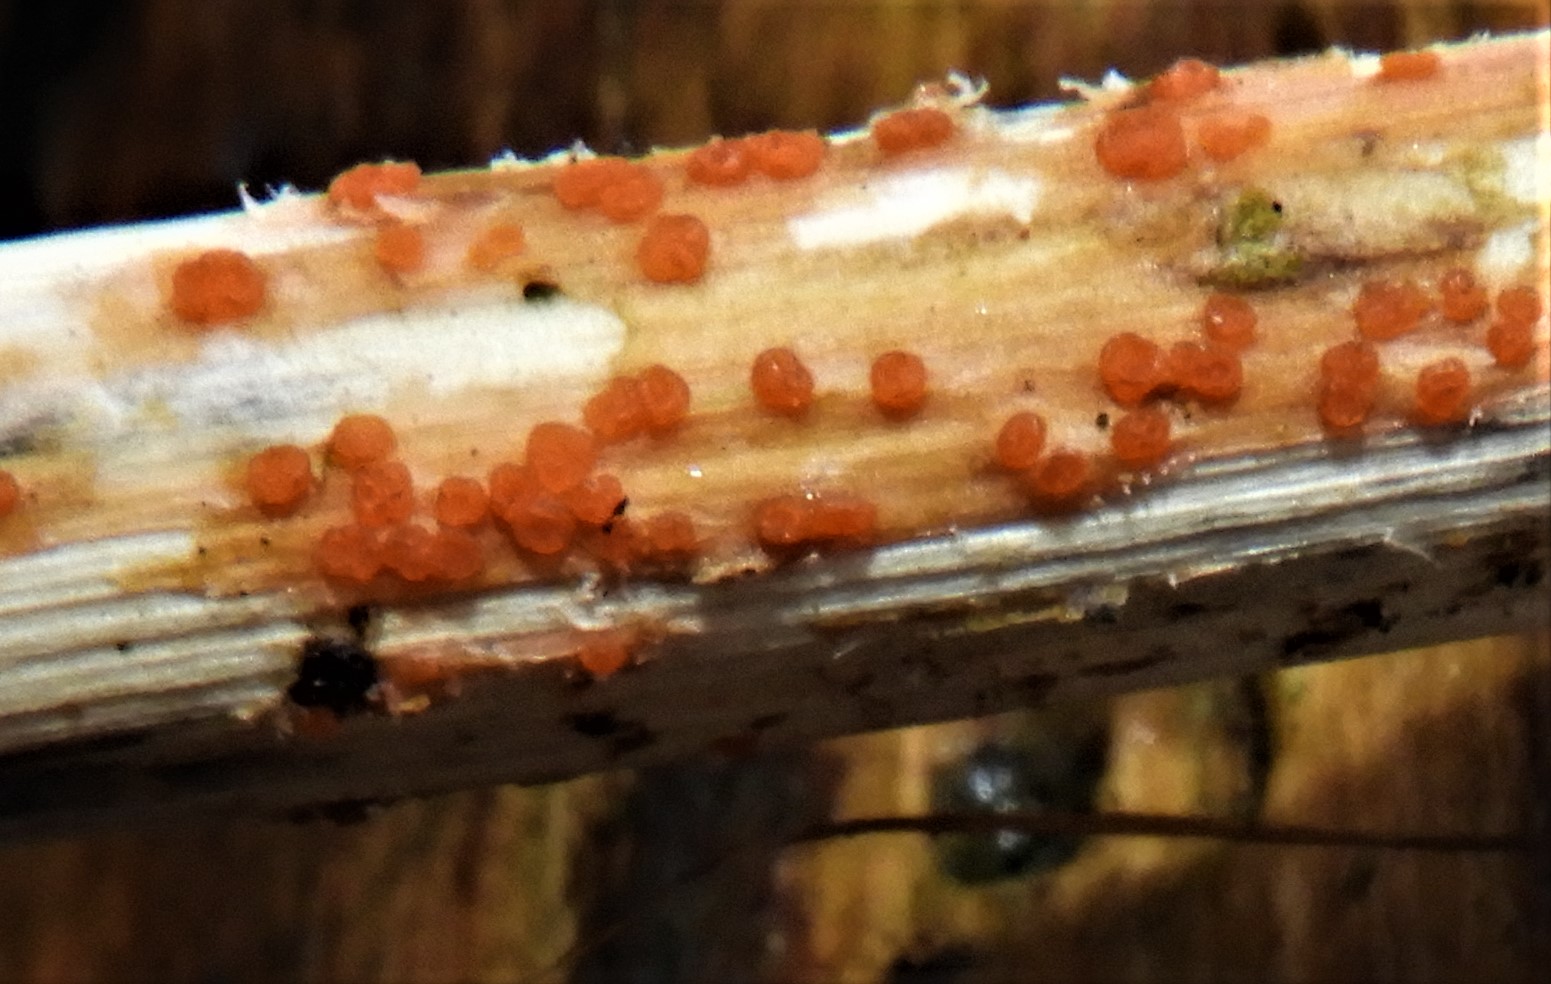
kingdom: Fungi
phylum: Ascomycota
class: Leotiomycetes
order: Helotiales
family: Calloriaceae
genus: Calloria
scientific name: Calloria urticae
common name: nælde-orangeskive
